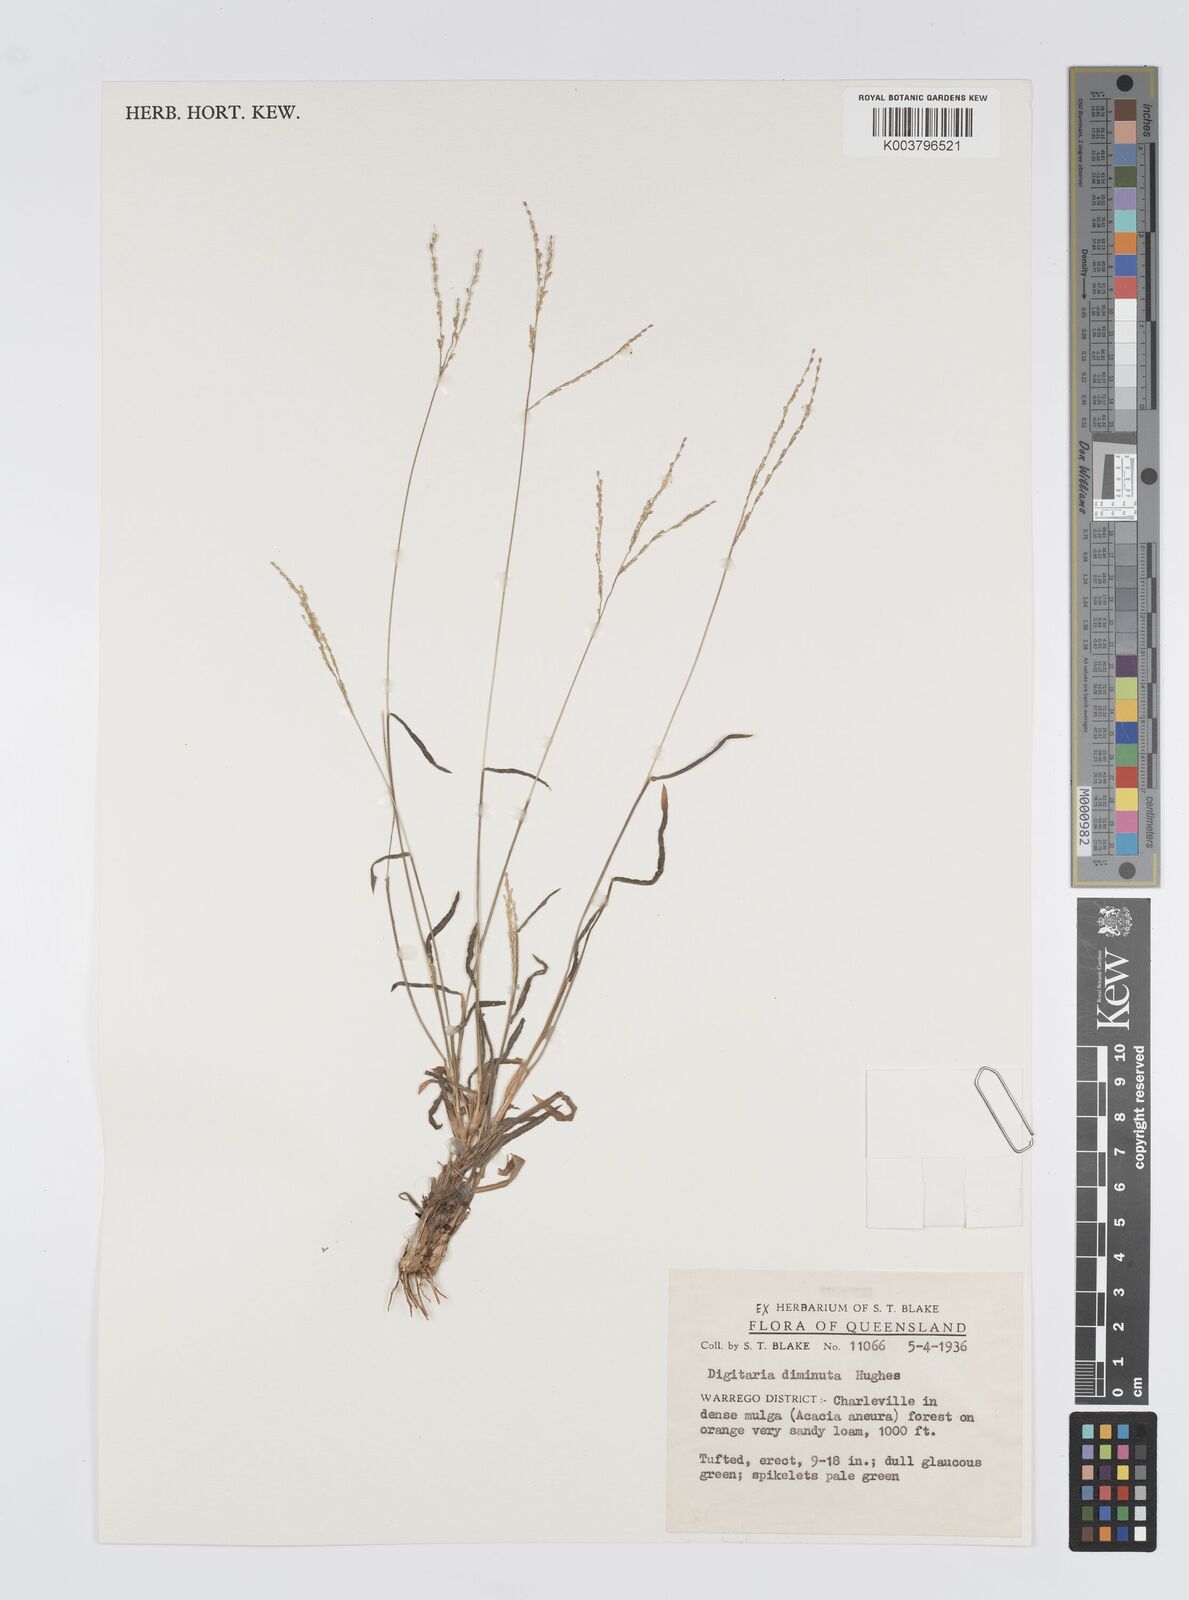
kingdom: Plantae
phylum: Tracheophyta
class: Liliopsida
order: Poales
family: Poaceae
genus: Digitaria
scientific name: Digitaria breviglumis
